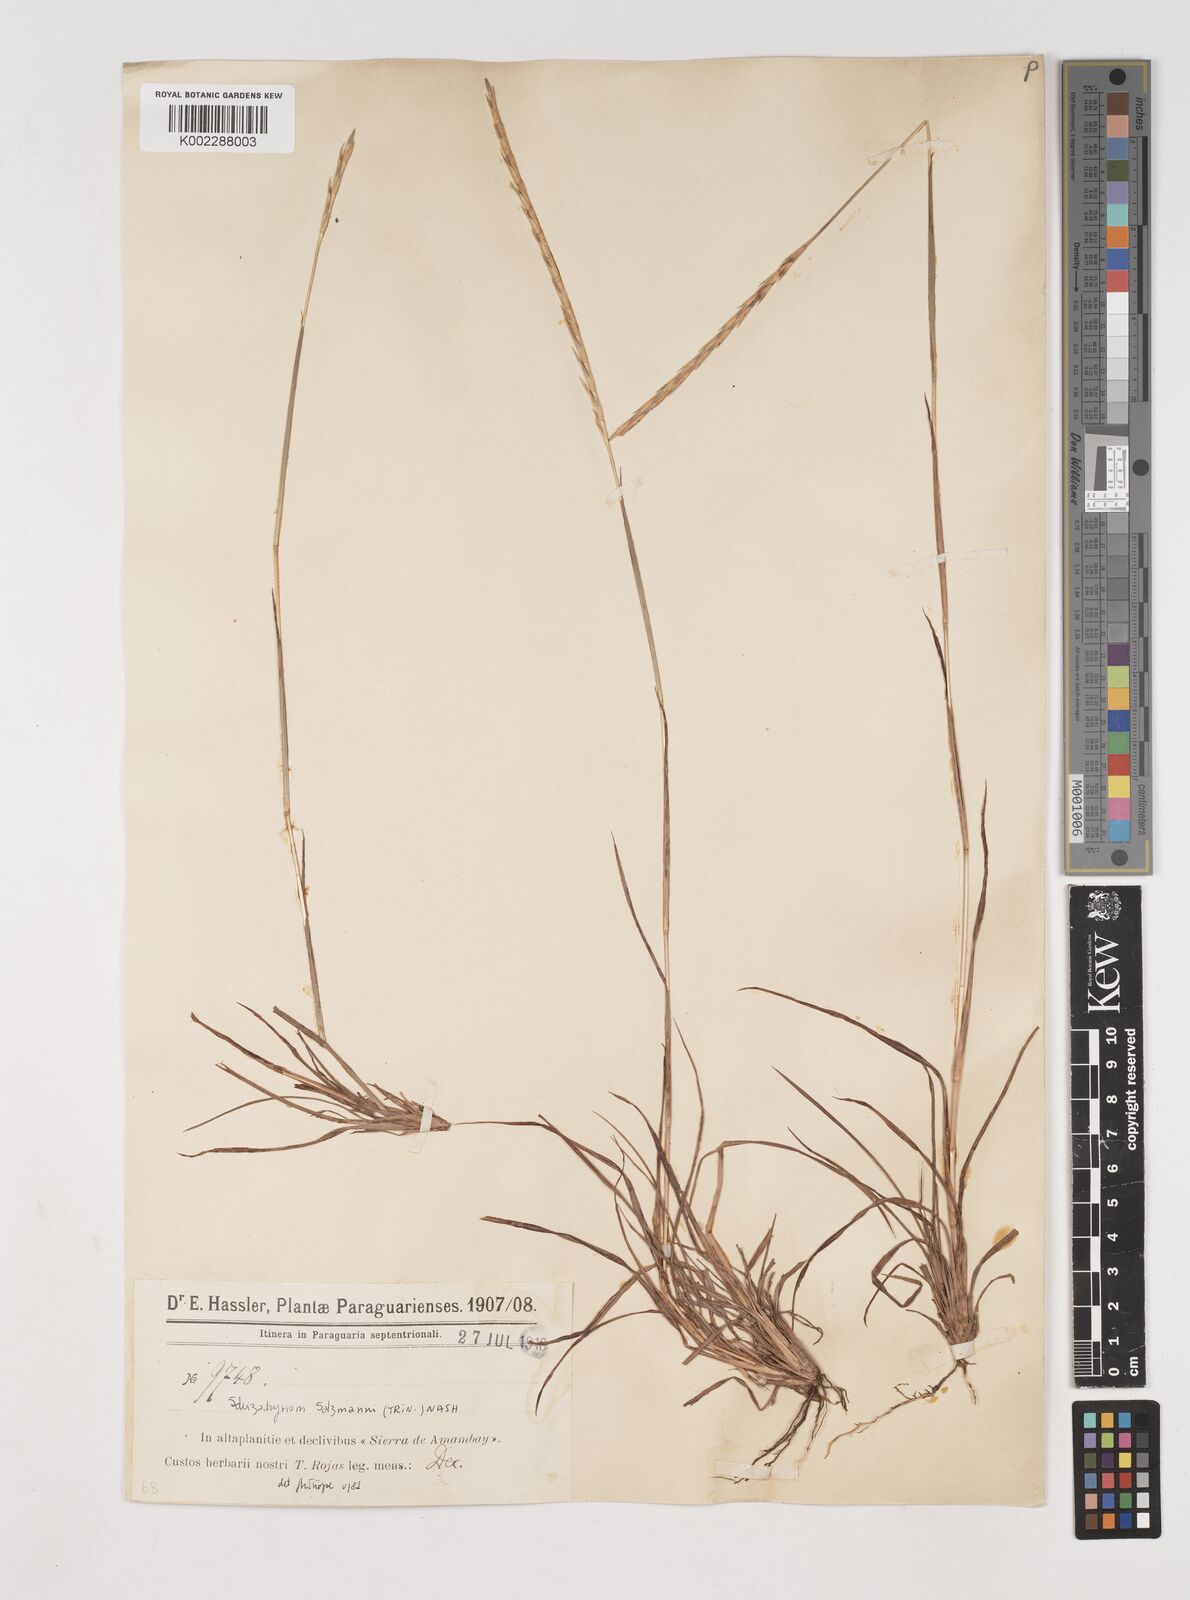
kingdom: Plantae
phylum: Tracheophyta
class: Liliopsida
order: Poales
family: Poaceae
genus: Andropogon
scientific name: Andropogon salzmannii
